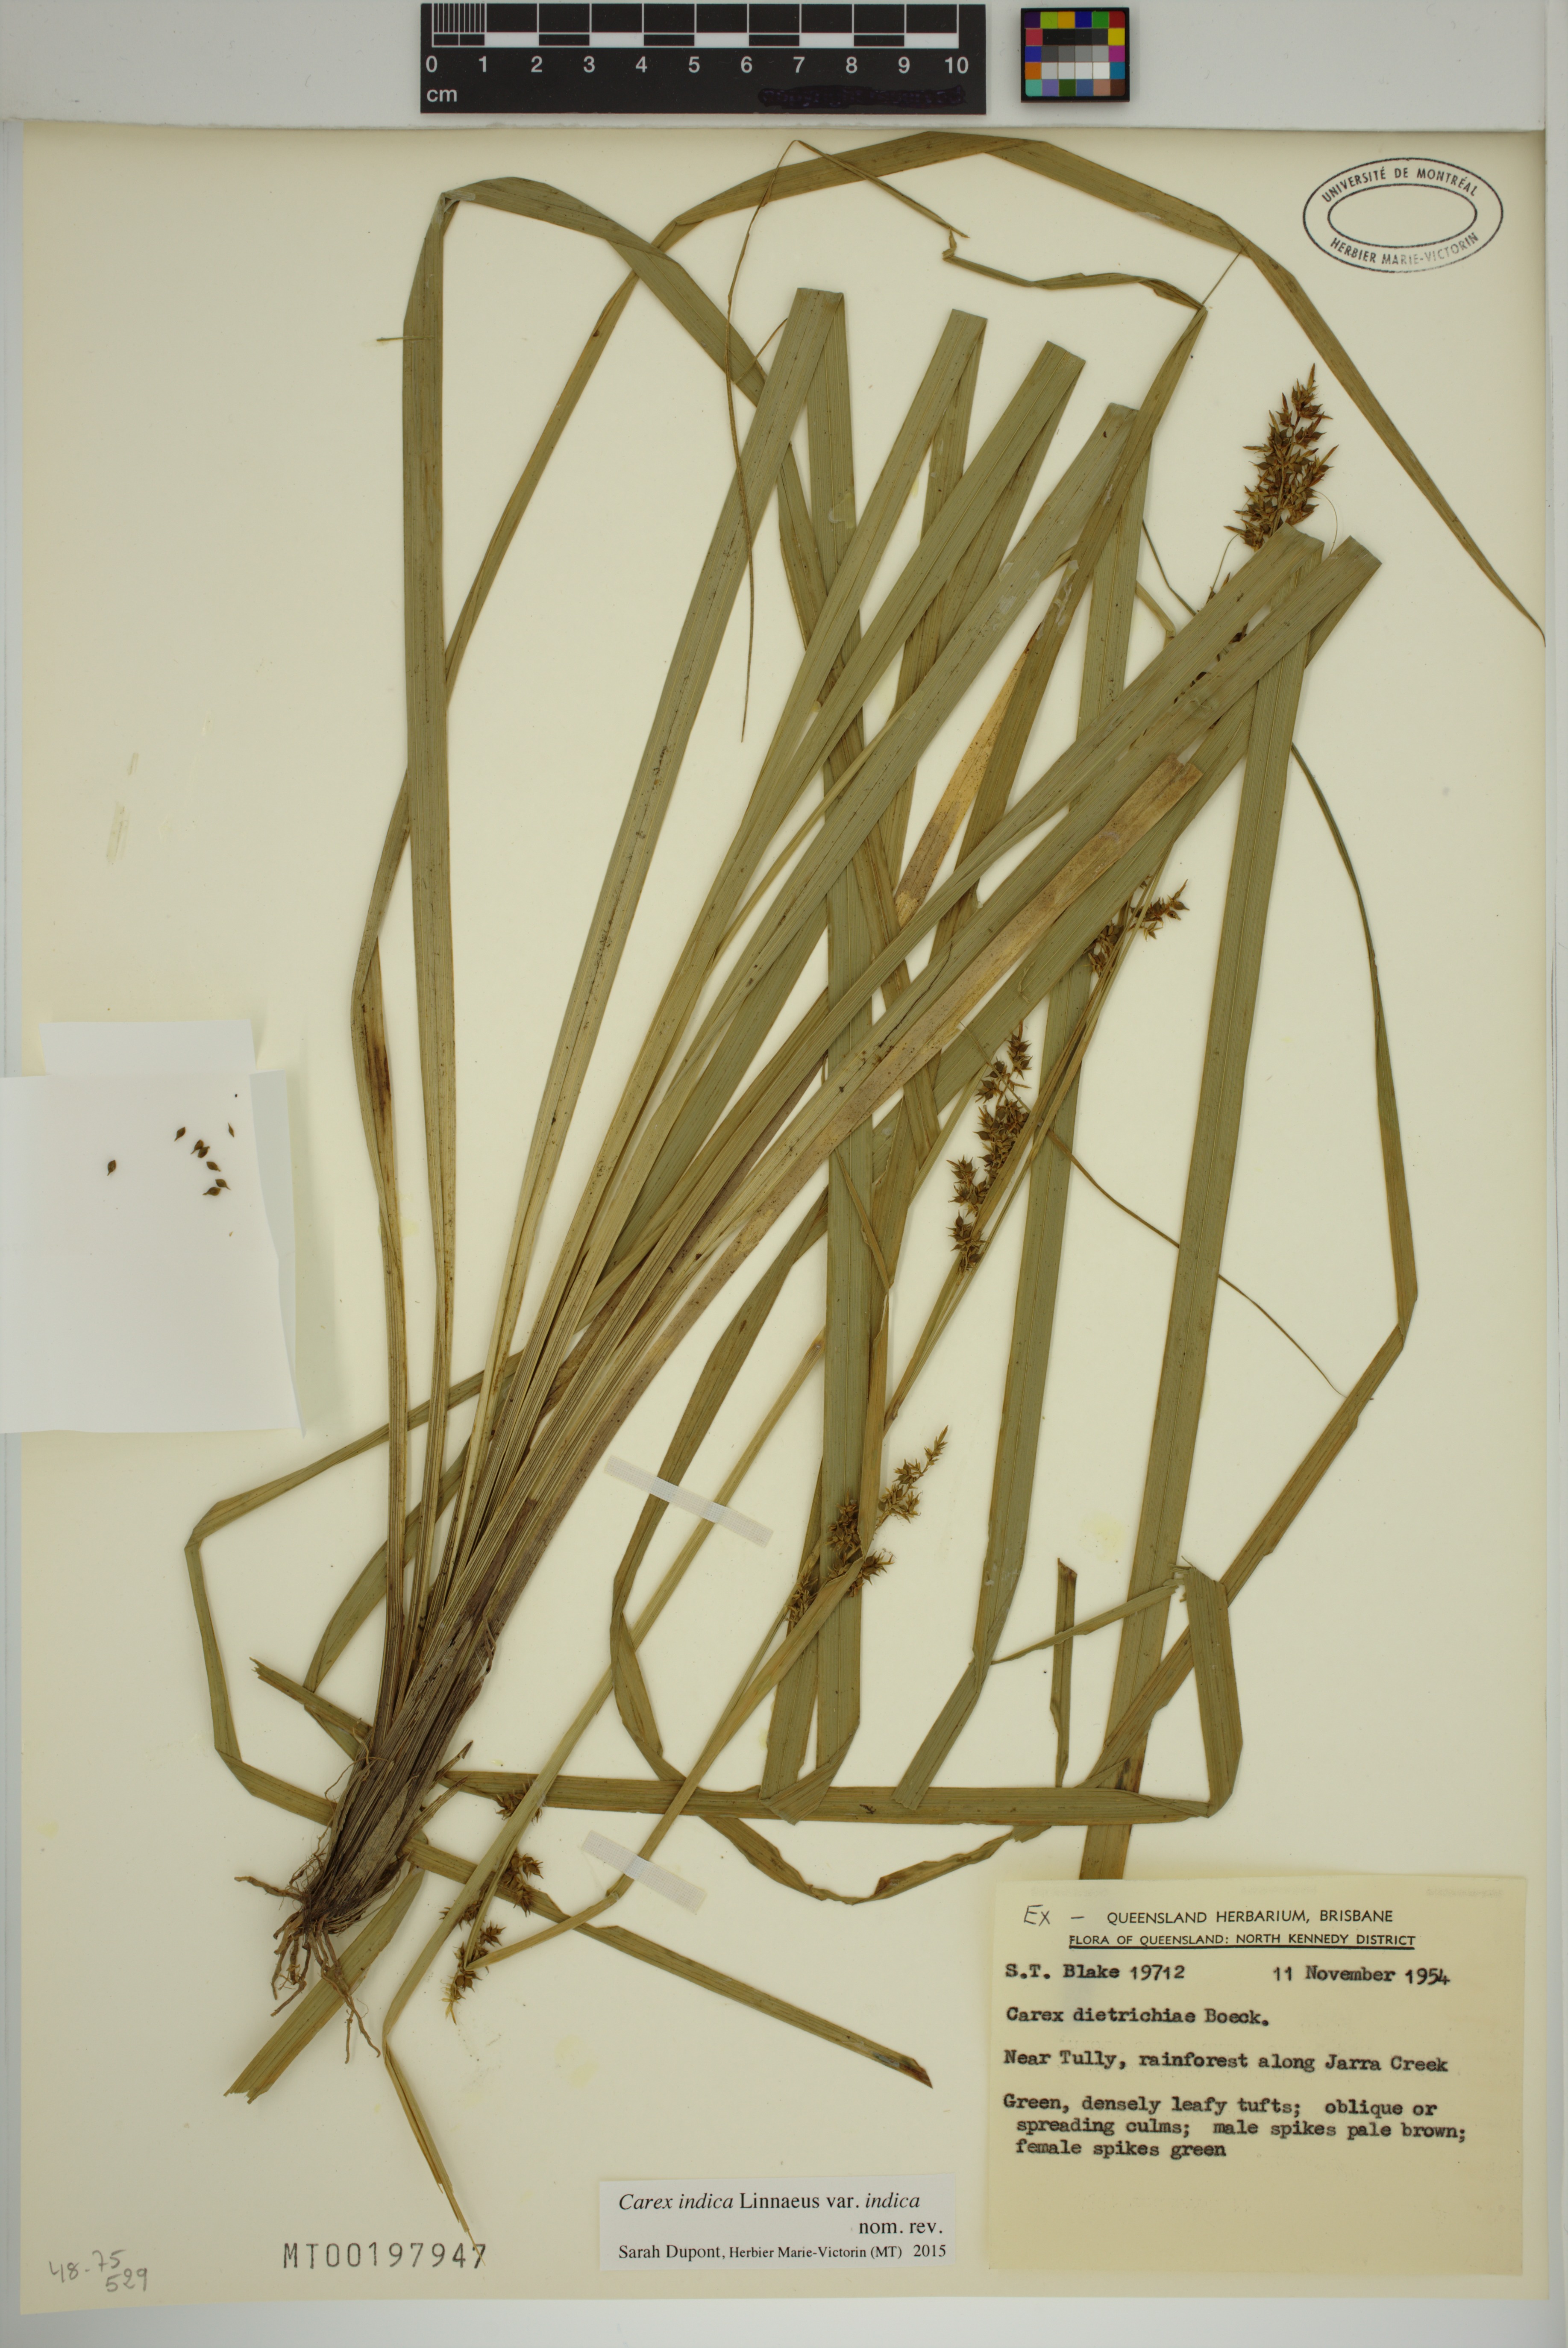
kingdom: Plantae
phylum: Tracheophyta
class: Liliopsida
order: Poales
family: Cyperaceae
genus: Carex
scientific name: Carex indica
